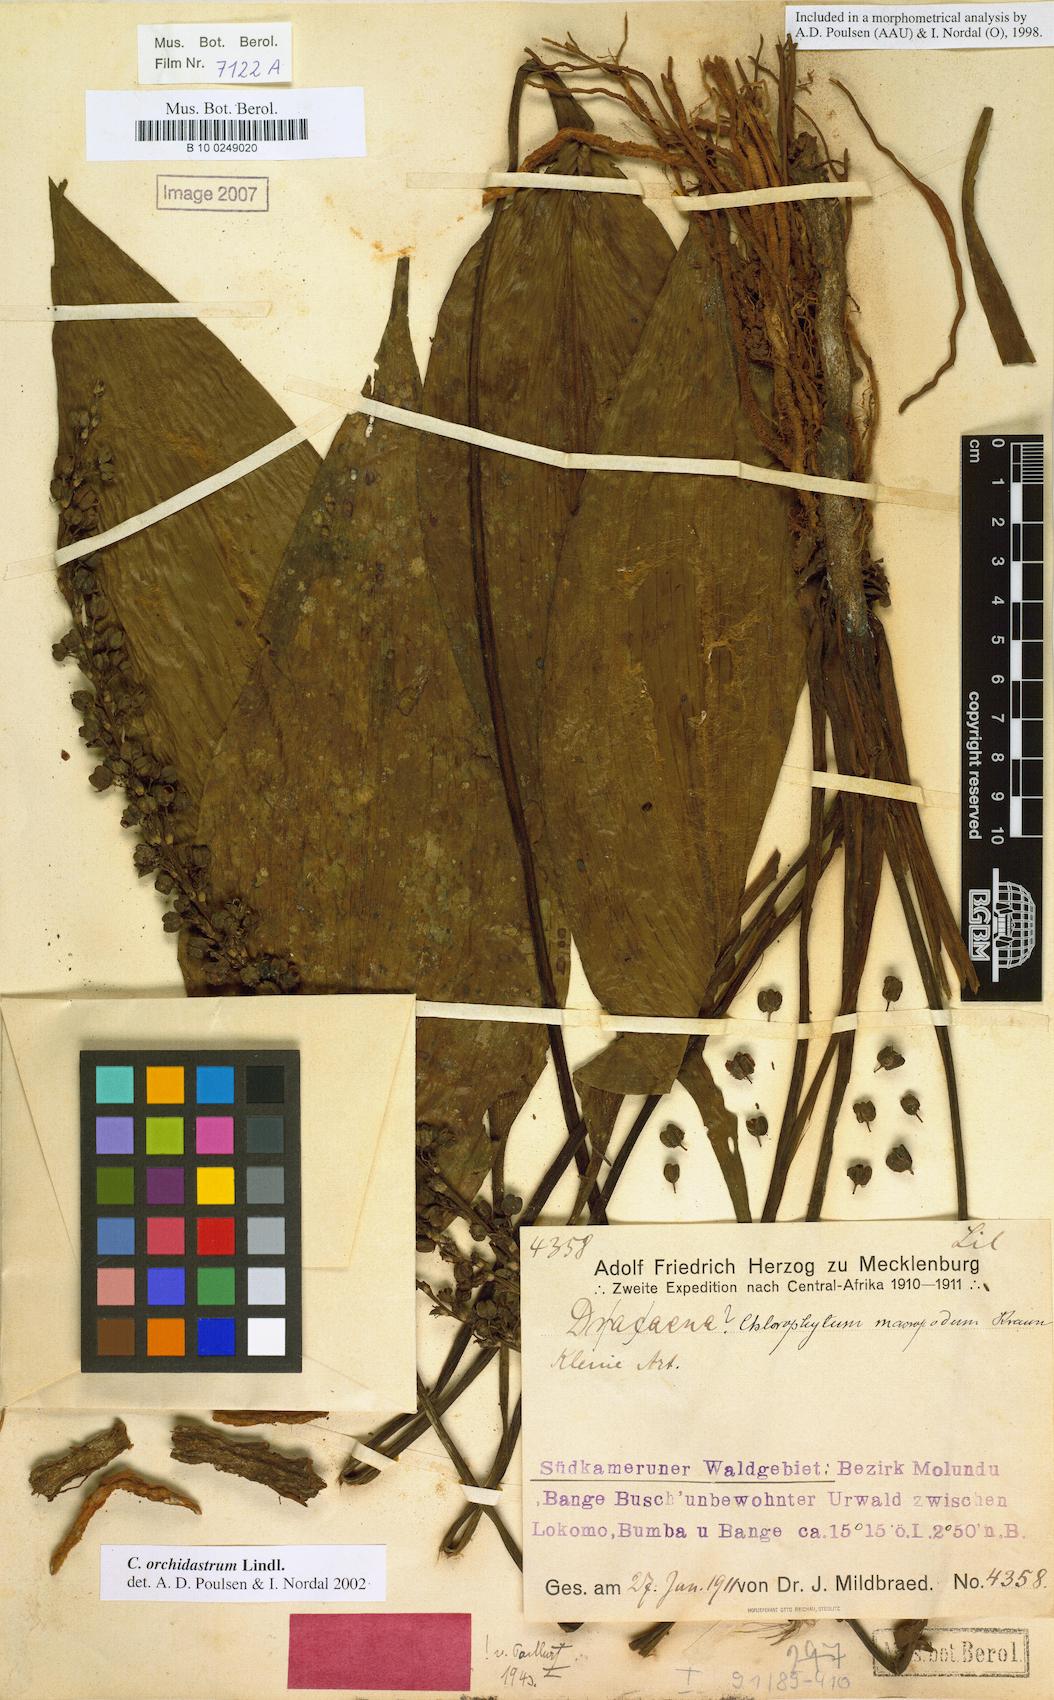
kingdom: Plantae
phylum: Tracheophyta
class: Liliopsida
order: Asparagales
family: Asparagaceae
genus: Chlorophytum
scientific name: Chlorophytum orchidastrum
